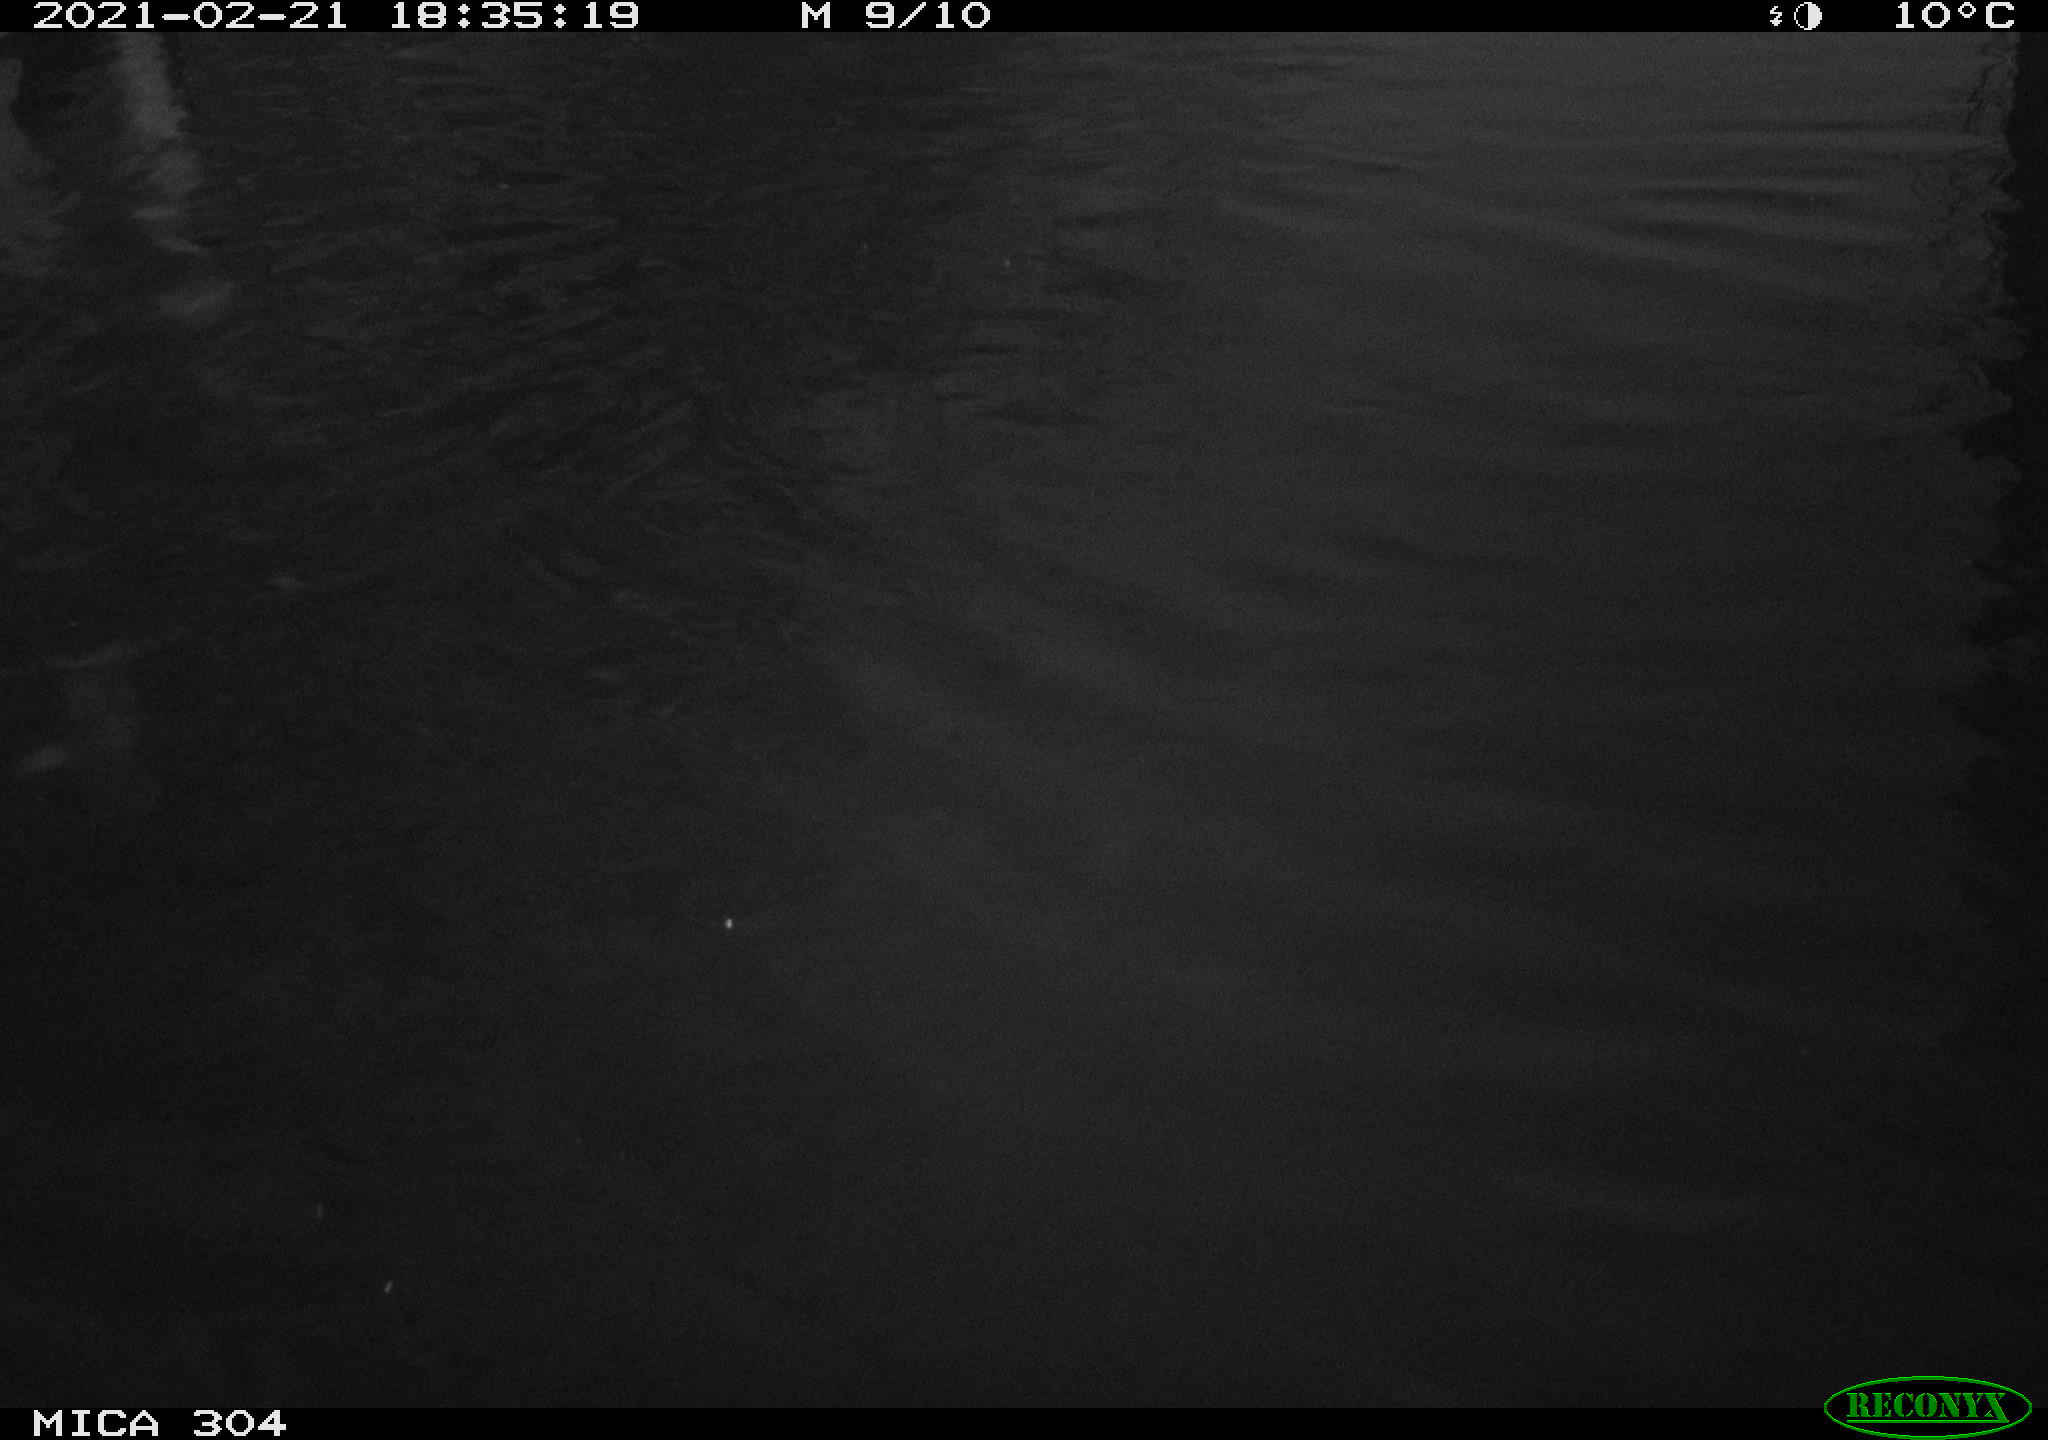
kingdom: Animalia
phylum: Chordata
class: Aves
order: Gruiformes
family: Rallidae
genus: Fulica
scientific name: Fulica atra
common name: Eurasian coot
